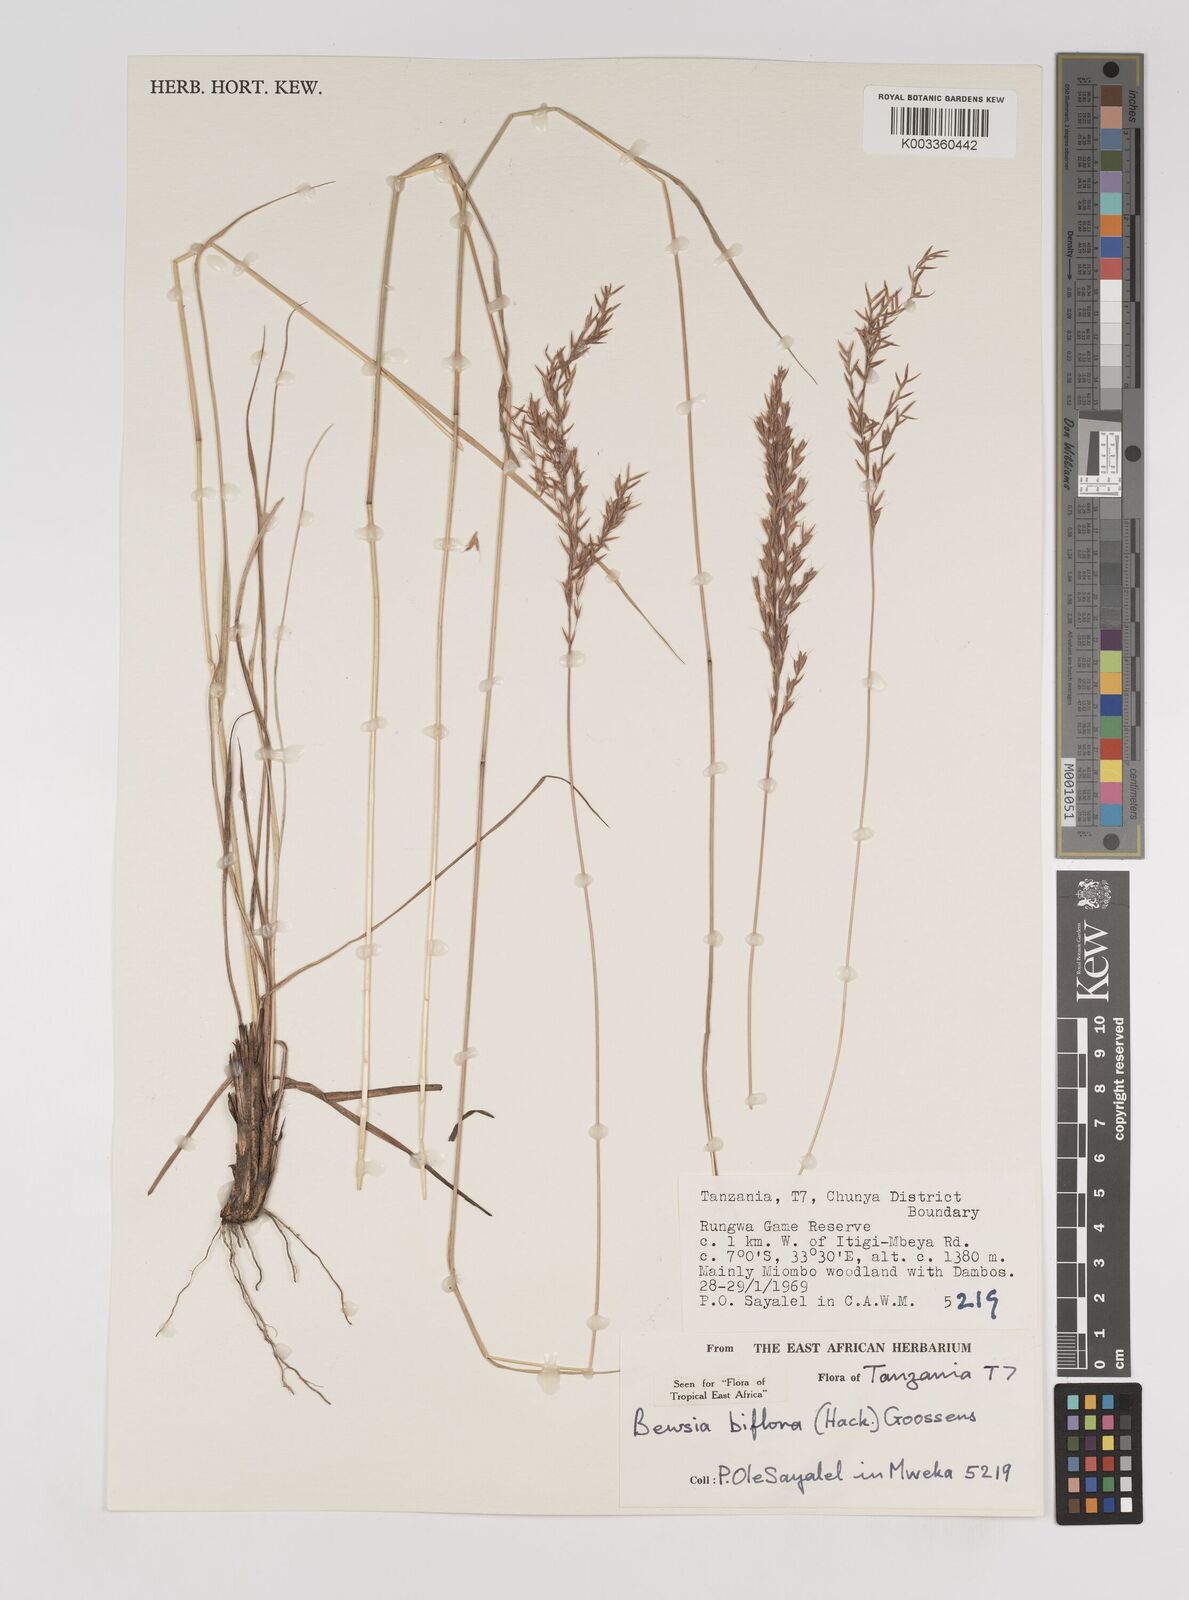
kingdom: Plantae
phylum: Tracheophyta
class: Liliopsida
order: Poales
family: Poaceae
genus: Bewsia
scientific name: Bewsia biflora
